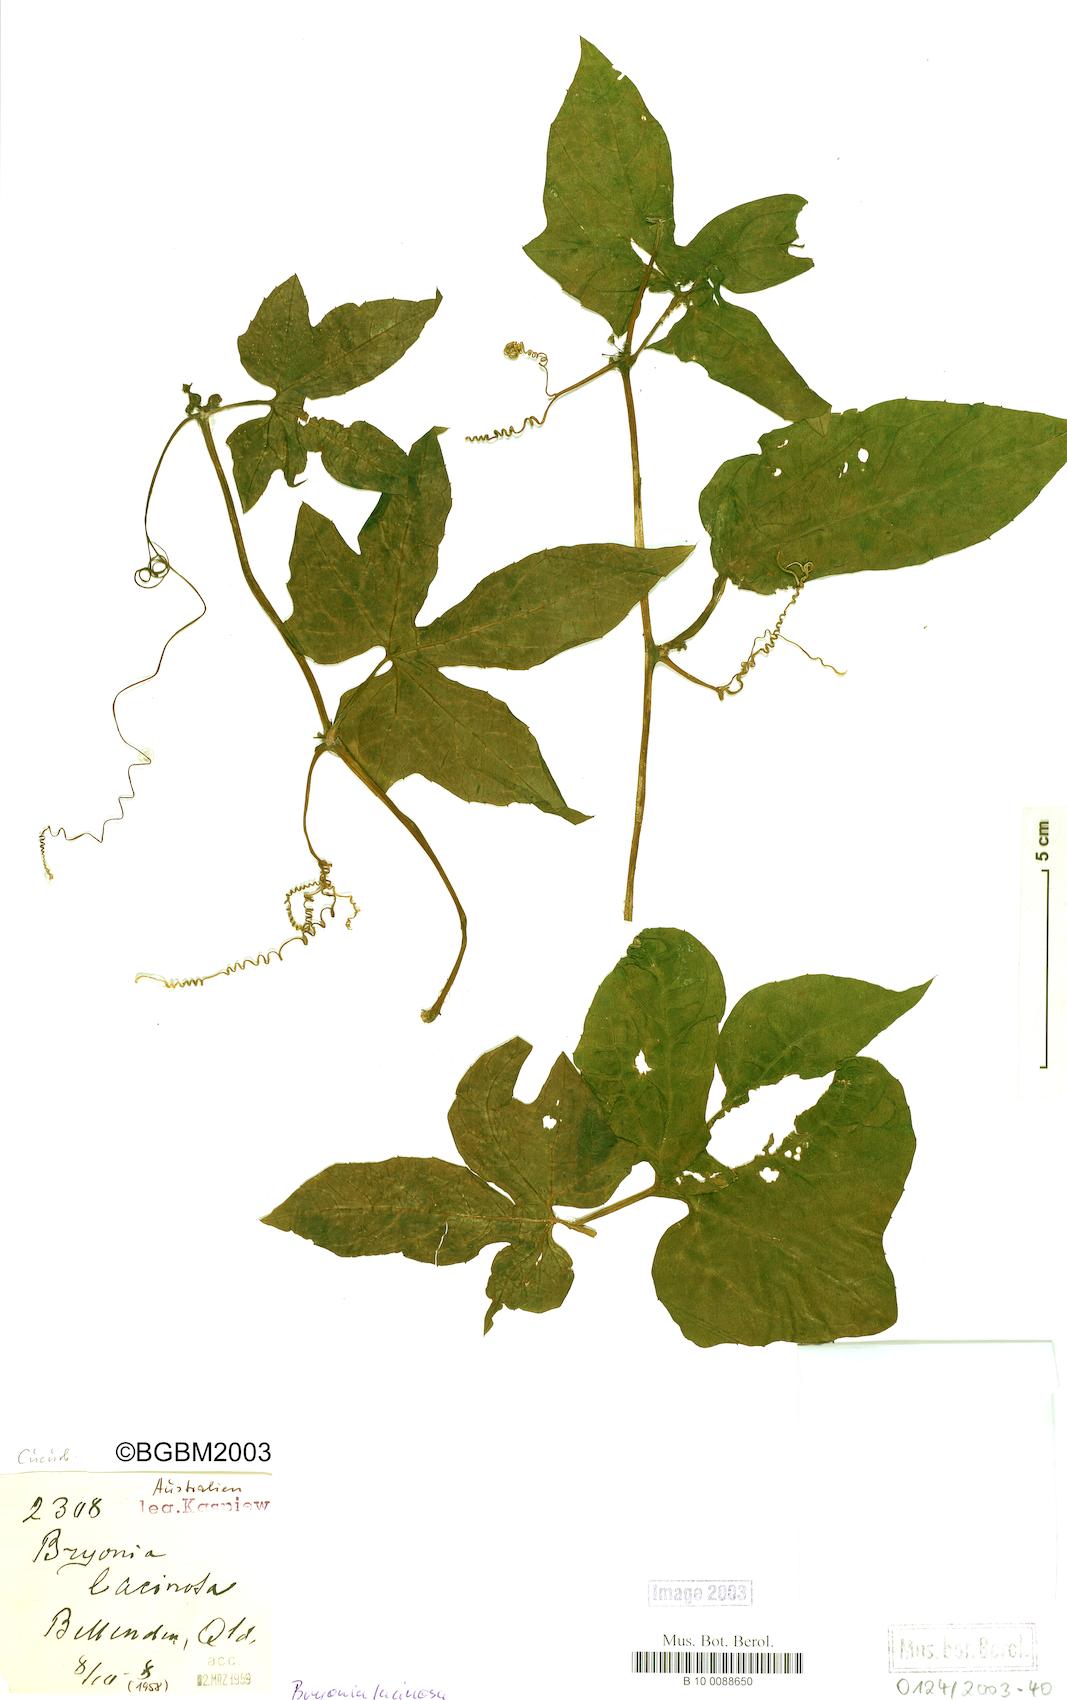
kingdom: Plantae
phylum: Tracheophyta
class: Magnoliopsida
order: Cucurbitales
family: Cucurbitaceae
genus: Diplocyclos
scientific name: Diplocyclos palmatus
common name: Striped-cucumber
